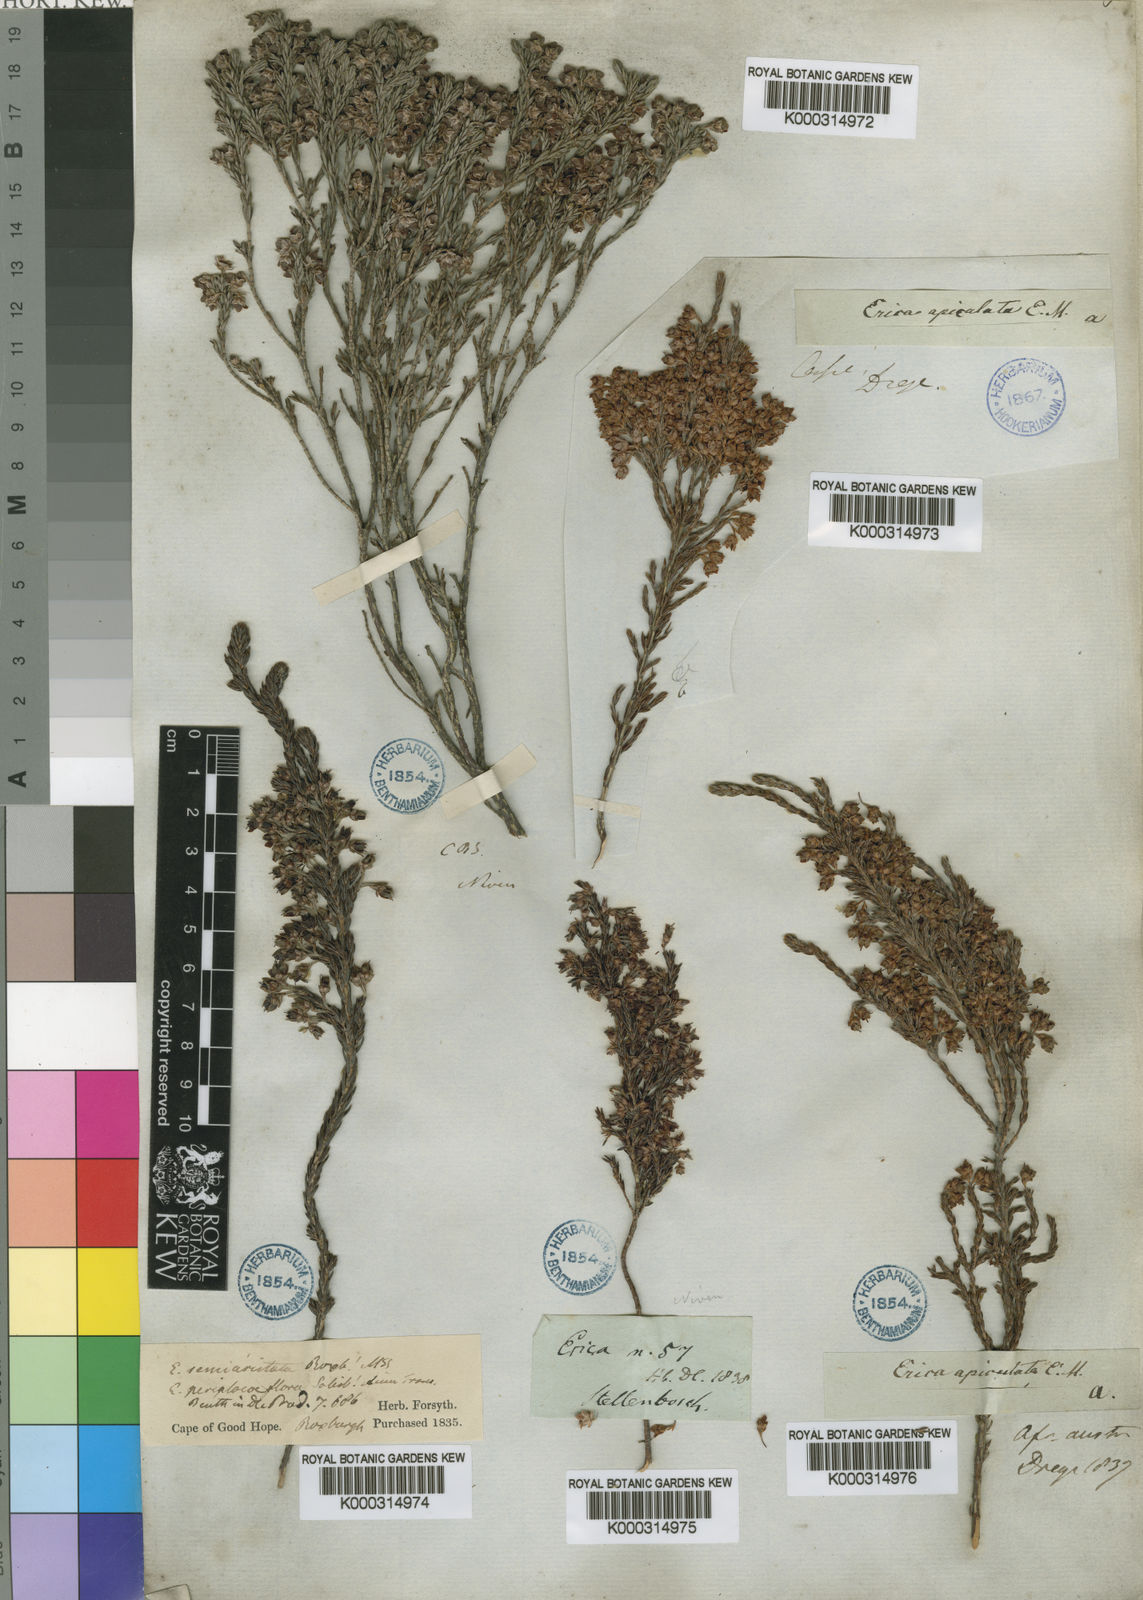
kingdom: Plantae
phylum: Tracheophyta
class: Magnoliopsida
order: Ericales
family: Ericaceae
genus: Erica
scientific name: Erica calycina
